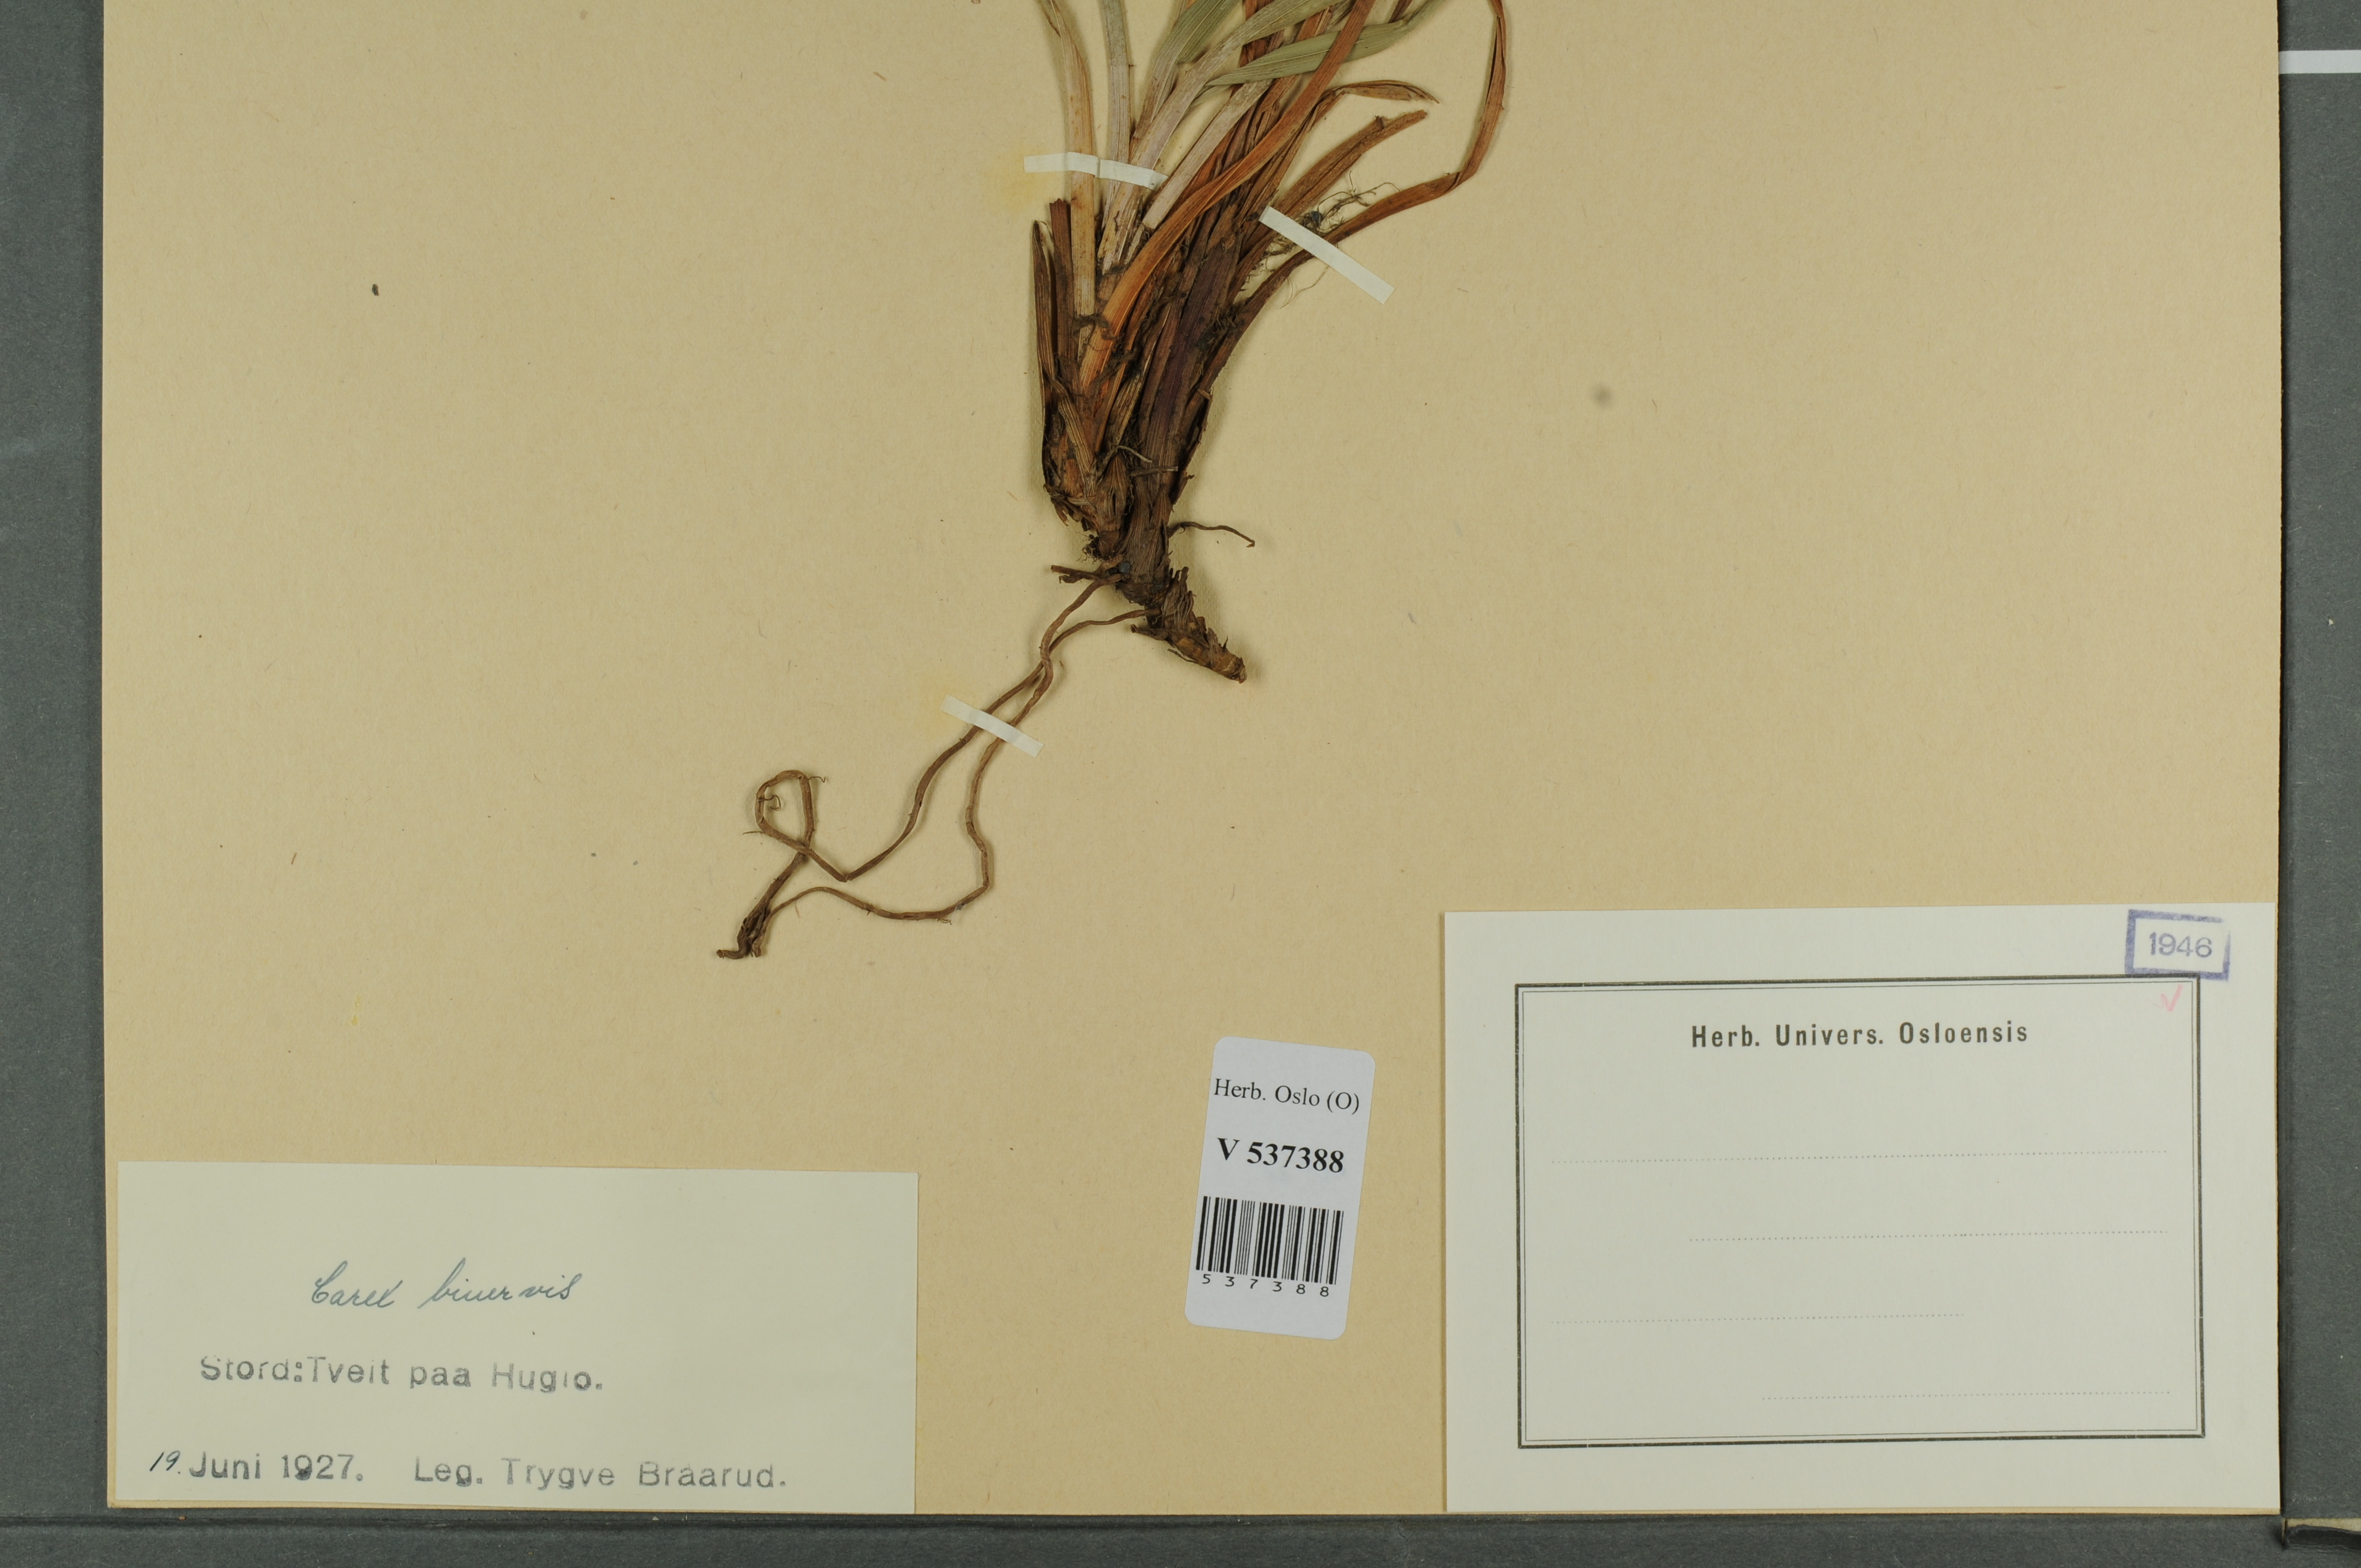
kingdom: Plantae
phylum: Tracheophyta
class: Liliopsida
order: Poales
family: Cyperaceae
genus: Carex
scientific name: Carex binervis
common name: Green-ribbed sedge
